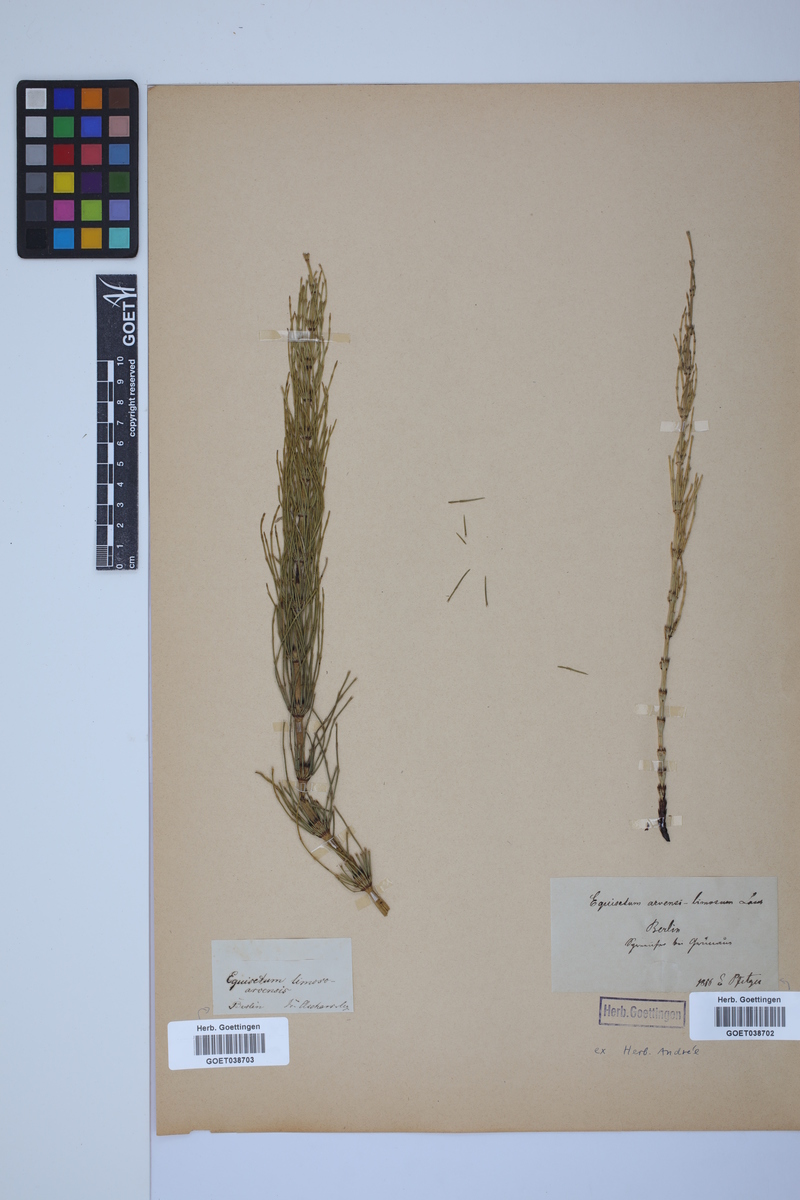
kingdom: Plantae
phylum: Tracheophyta
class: Polypodiopsida
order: Equisetales
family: Equisetaceae
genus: Equisetum
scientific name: Equisetum litorale
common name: Littoral horsetail
